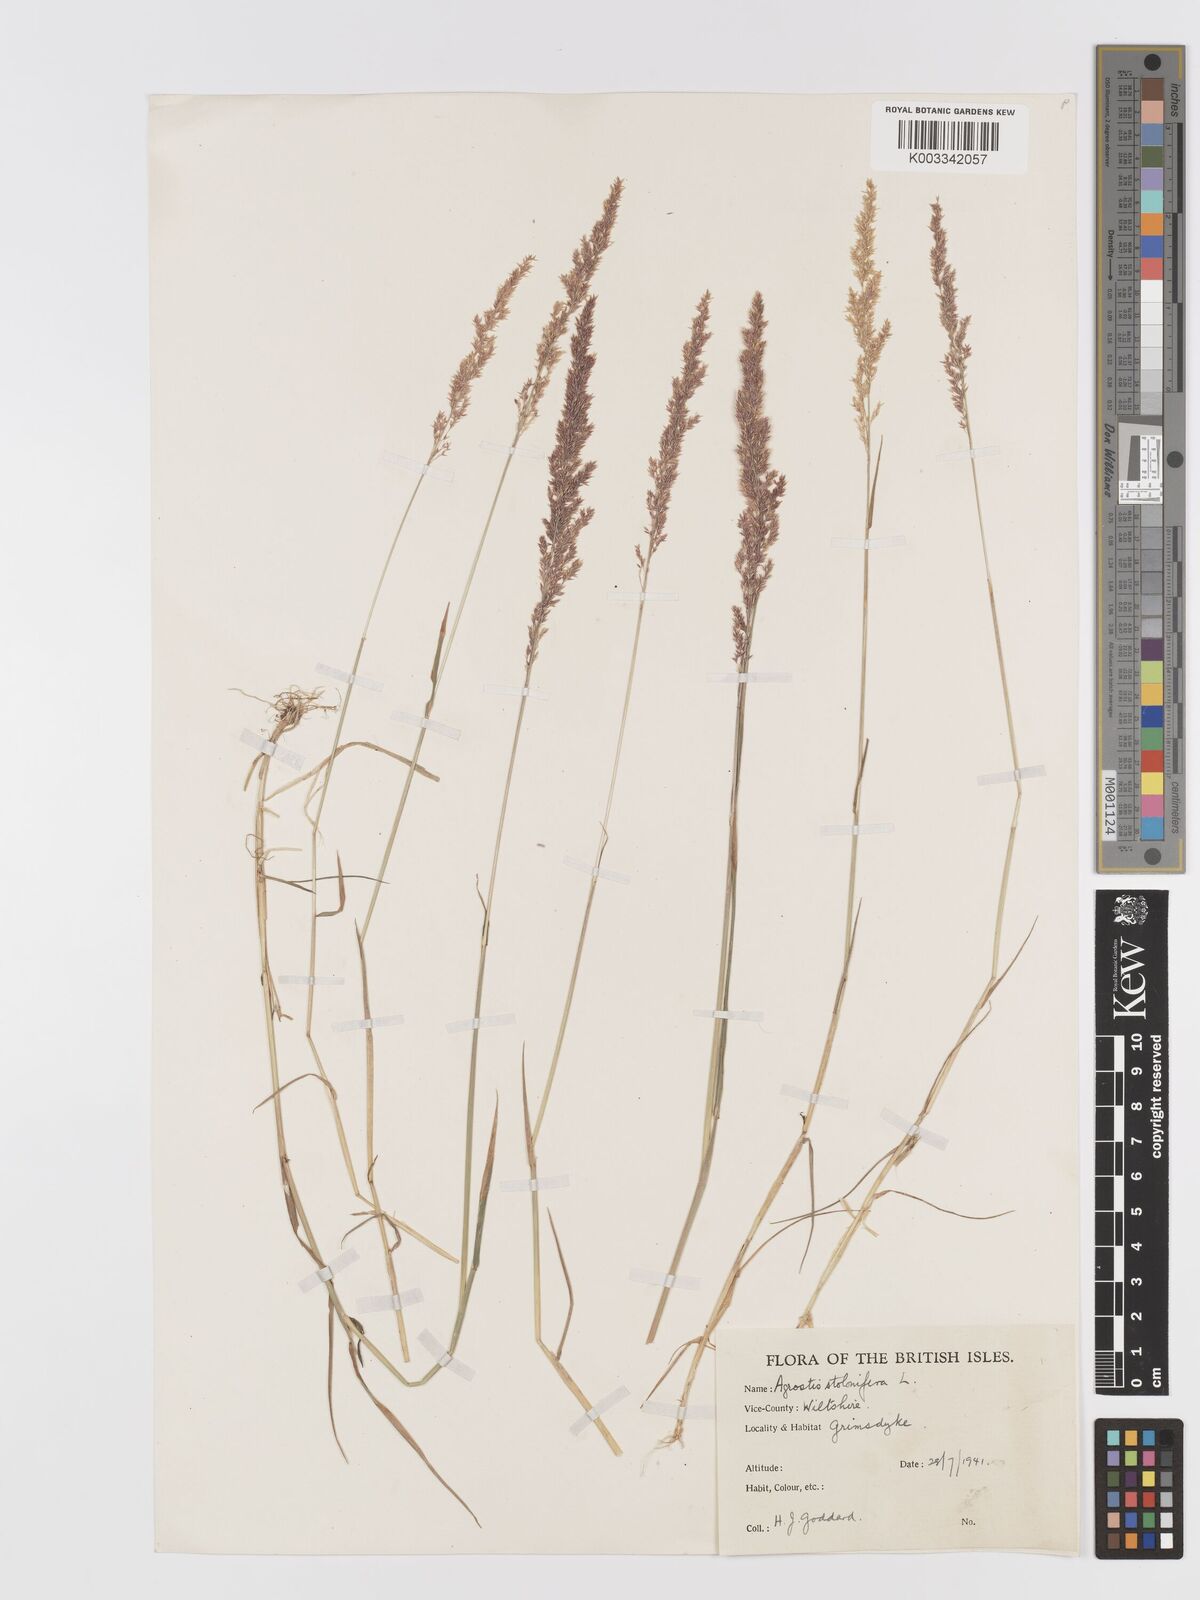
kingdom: Plantae
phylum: Tracheophyta
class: Liliopsida
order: Poales
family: Poaceae
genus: Agrostis
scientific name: Agrostis stolonifera
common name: Creeping bentgrass
